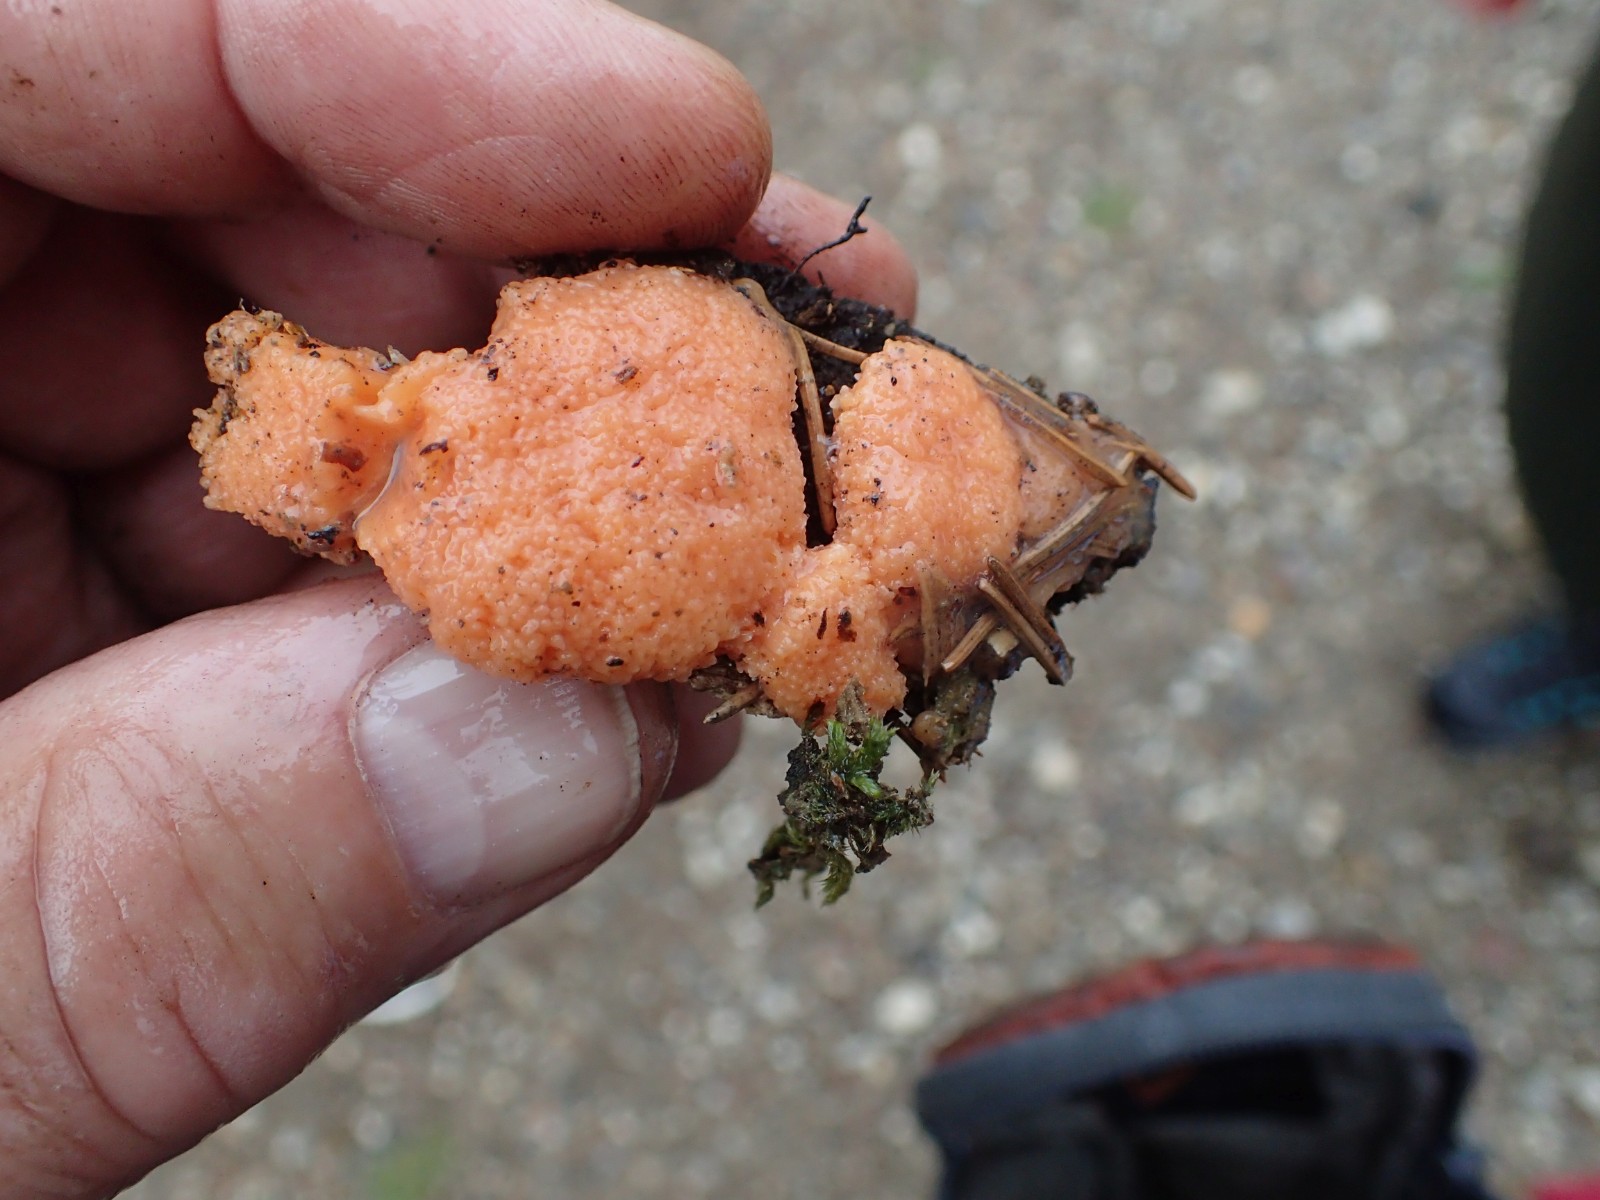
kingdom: Protozoa
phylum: Mycetozoa
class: Myxomycetes
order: Cribrariales
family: Tubiferaceae
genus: Tubifera
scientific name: Tubifera ferruginosa
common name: kanel-støvrør
